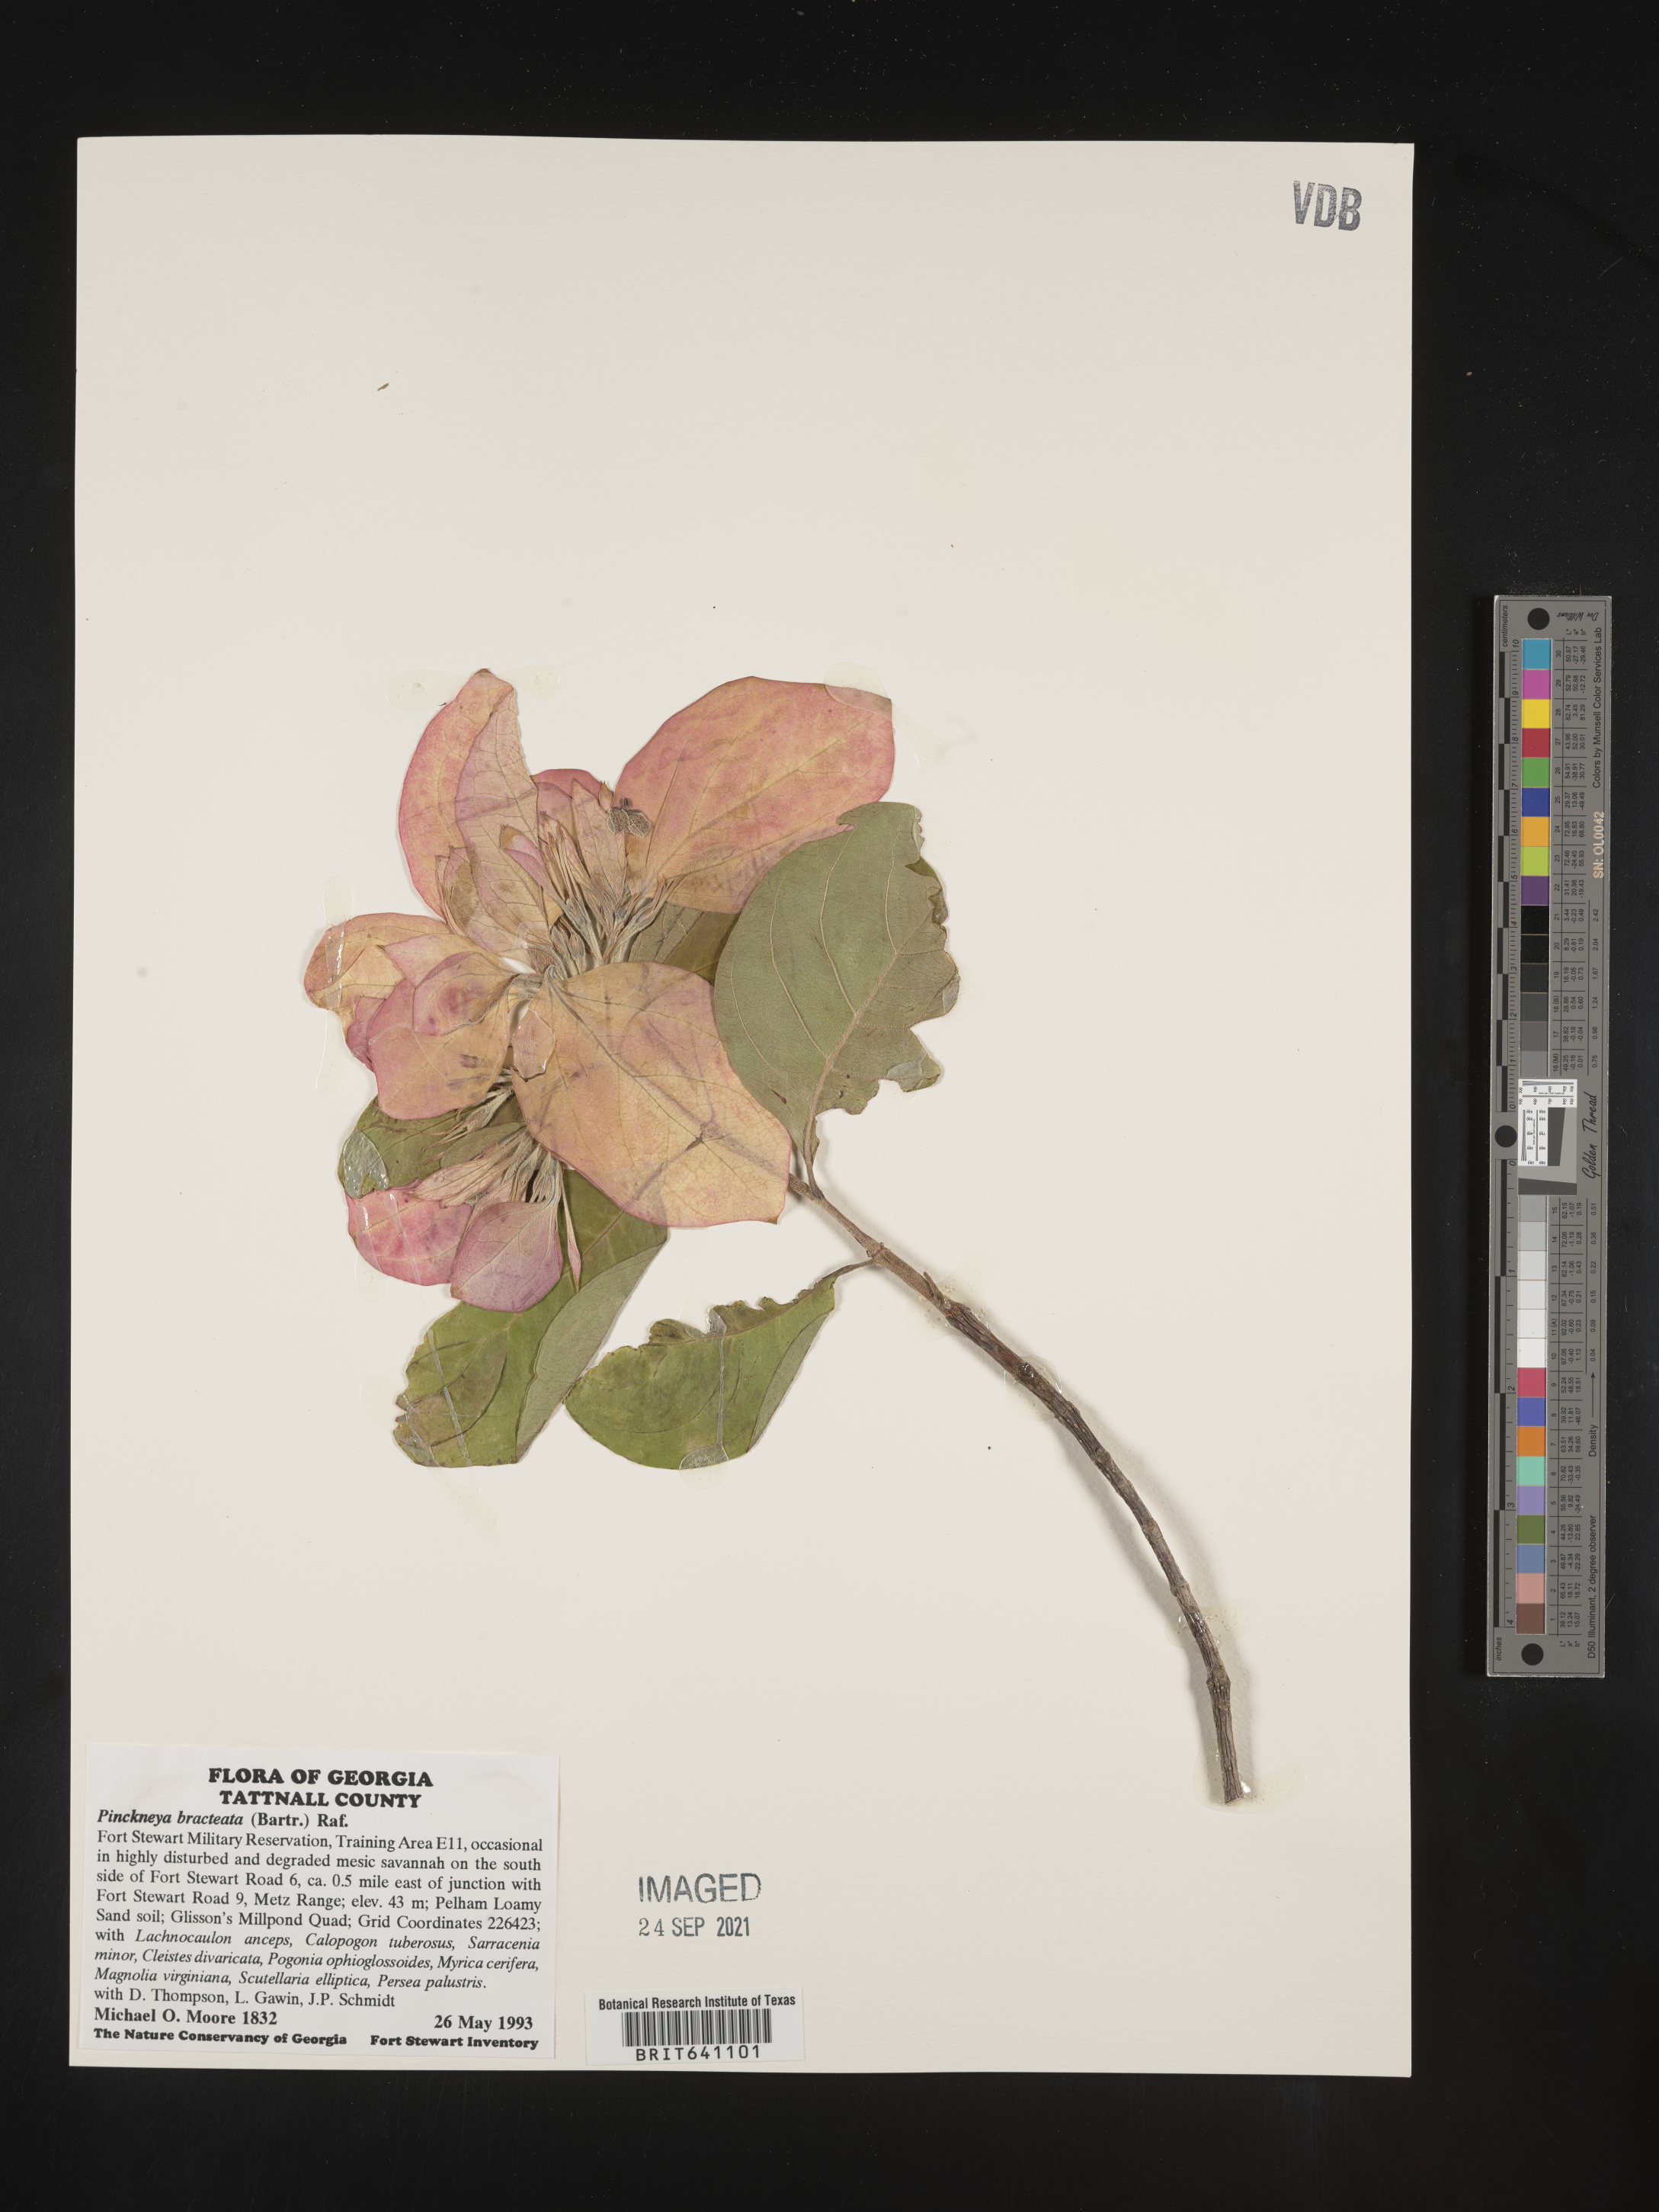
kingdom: Plantae
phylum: Tracheophyta
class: Magnoliopsida
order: Gentianales
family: Rubiaceae
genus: Pinckneya
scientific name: Pinckneya pubens
